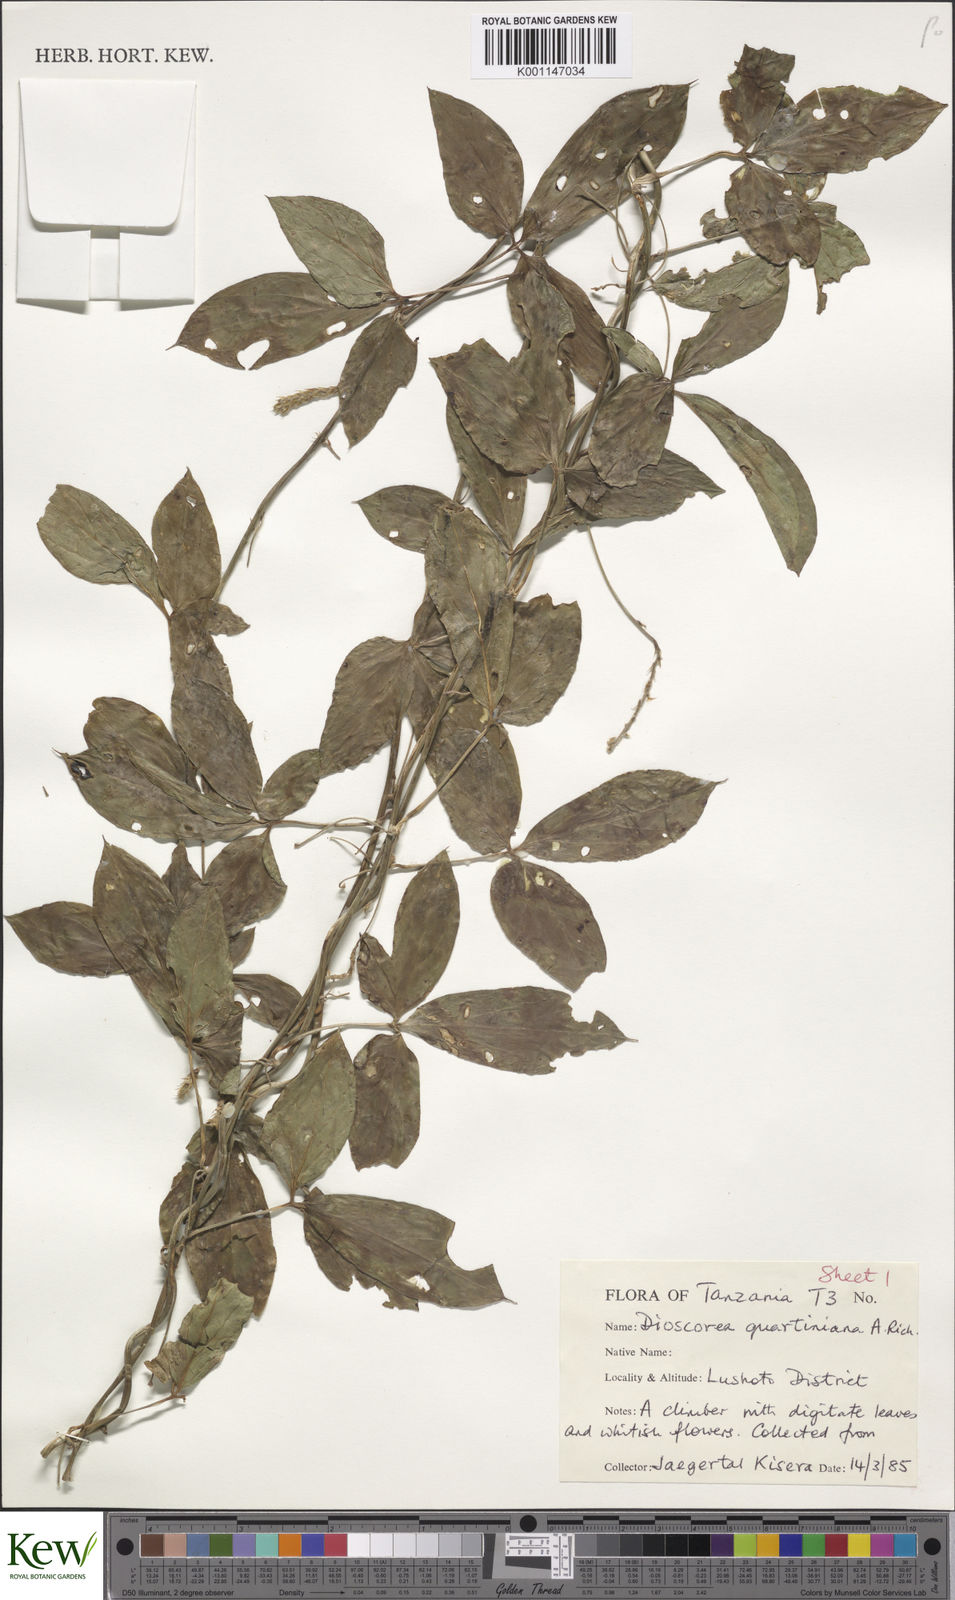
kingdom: Plantae
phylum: Tracheophyta
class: Liliopsida
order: Dioscoreales
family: Dioscoreaceae
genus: Dioscorea
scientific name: Dioscorea quartiniana
